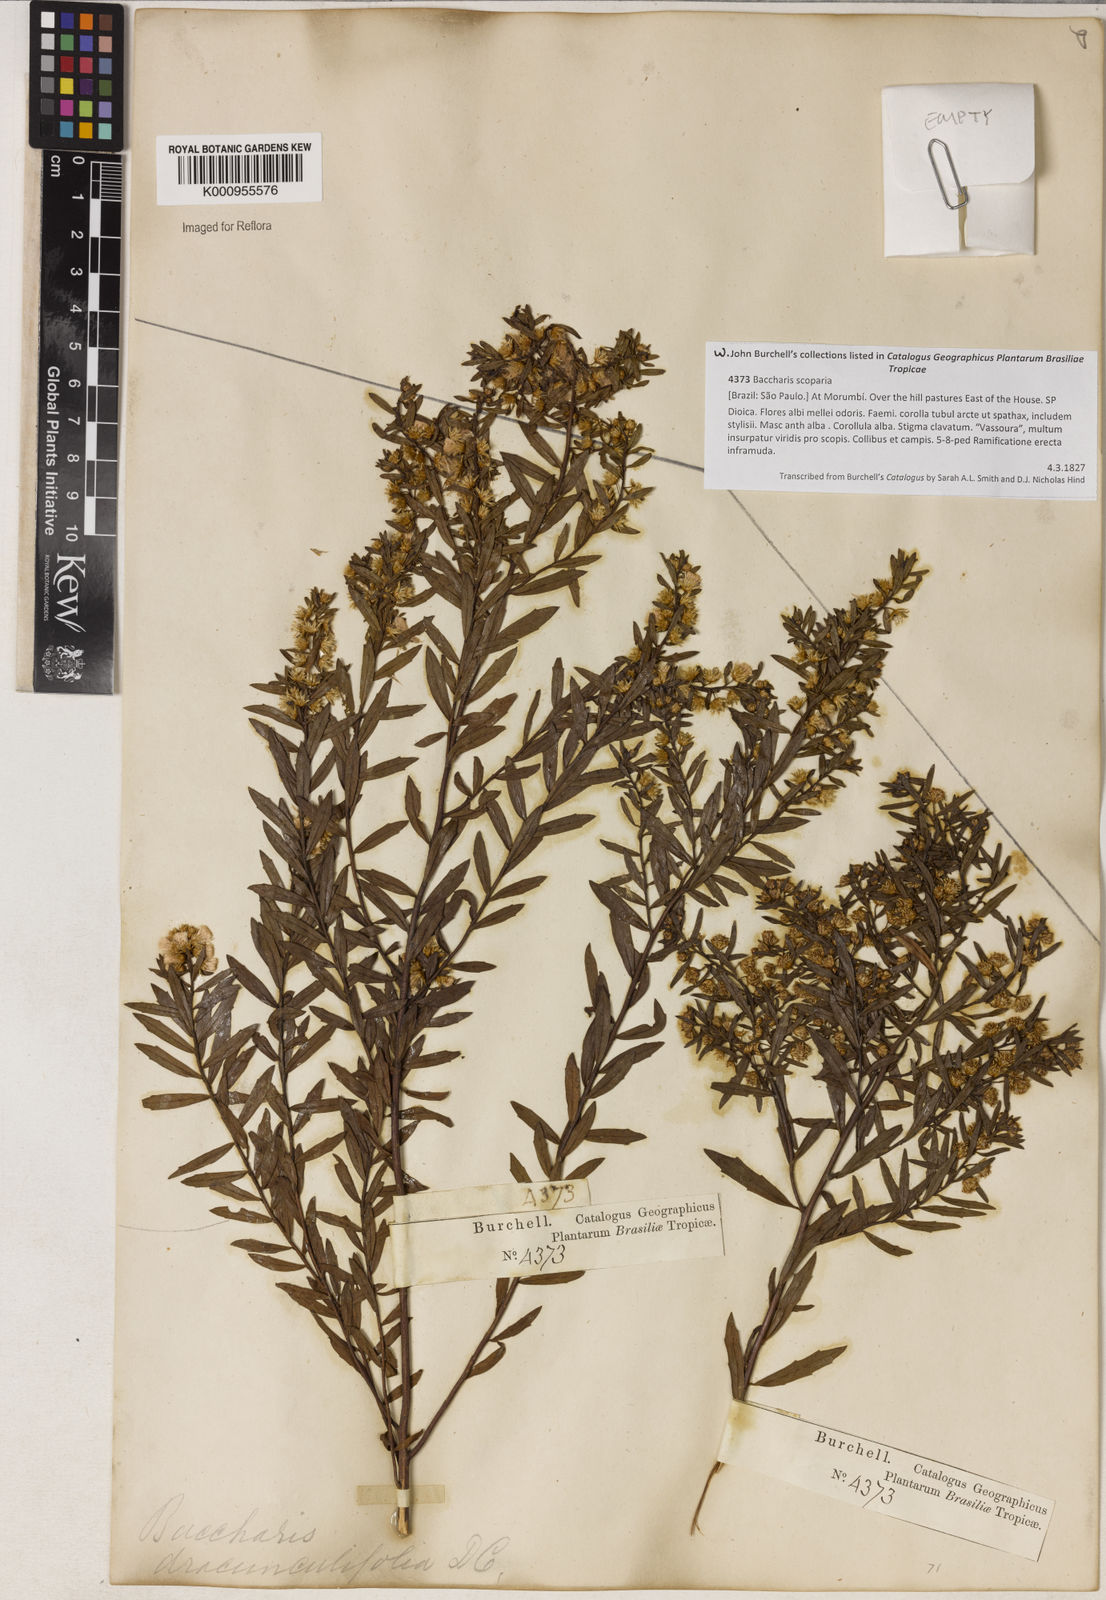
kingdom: Plantae
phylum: Tracheophyta
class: Magnoliopsida
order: Asterales
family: Asteraceae
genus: Baccharis
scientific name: Baccharis dracunculifolia
